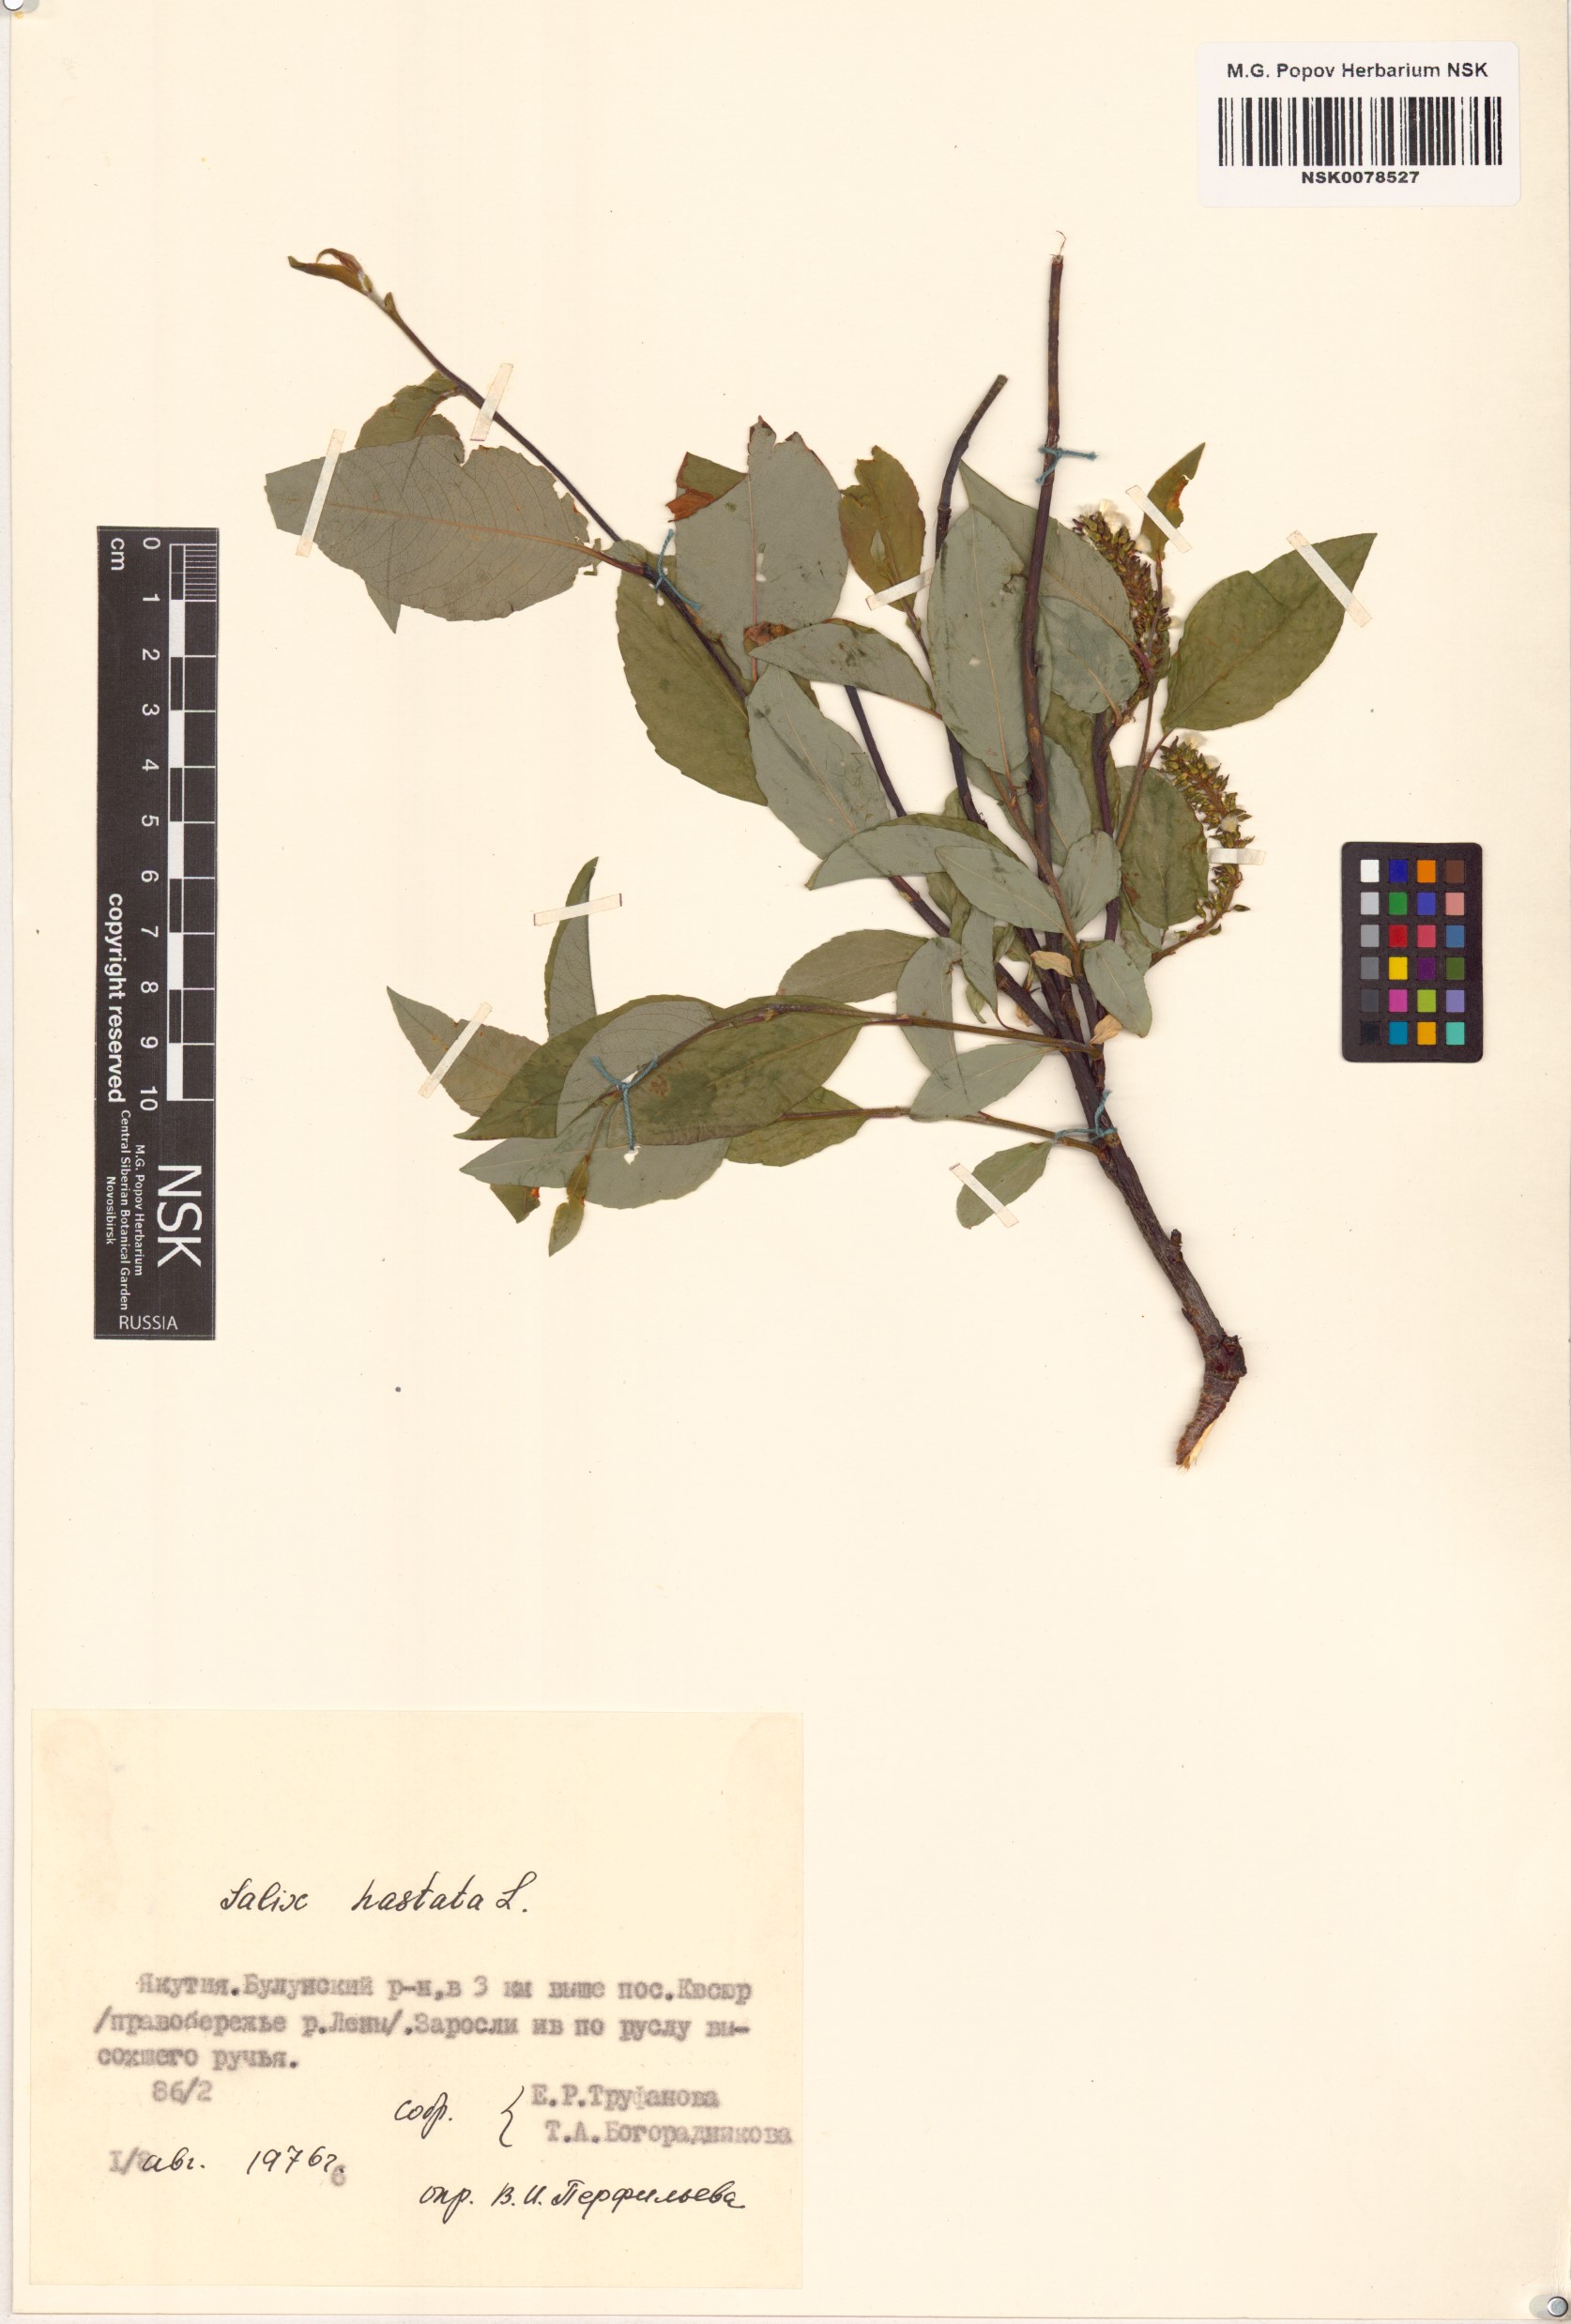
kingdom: Plantae
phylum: Tracheophyta
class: Magnoliopsida
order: Malpighiales
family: Salicaceae
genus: Salix
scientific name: Salix hastata
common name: Halberd willow
